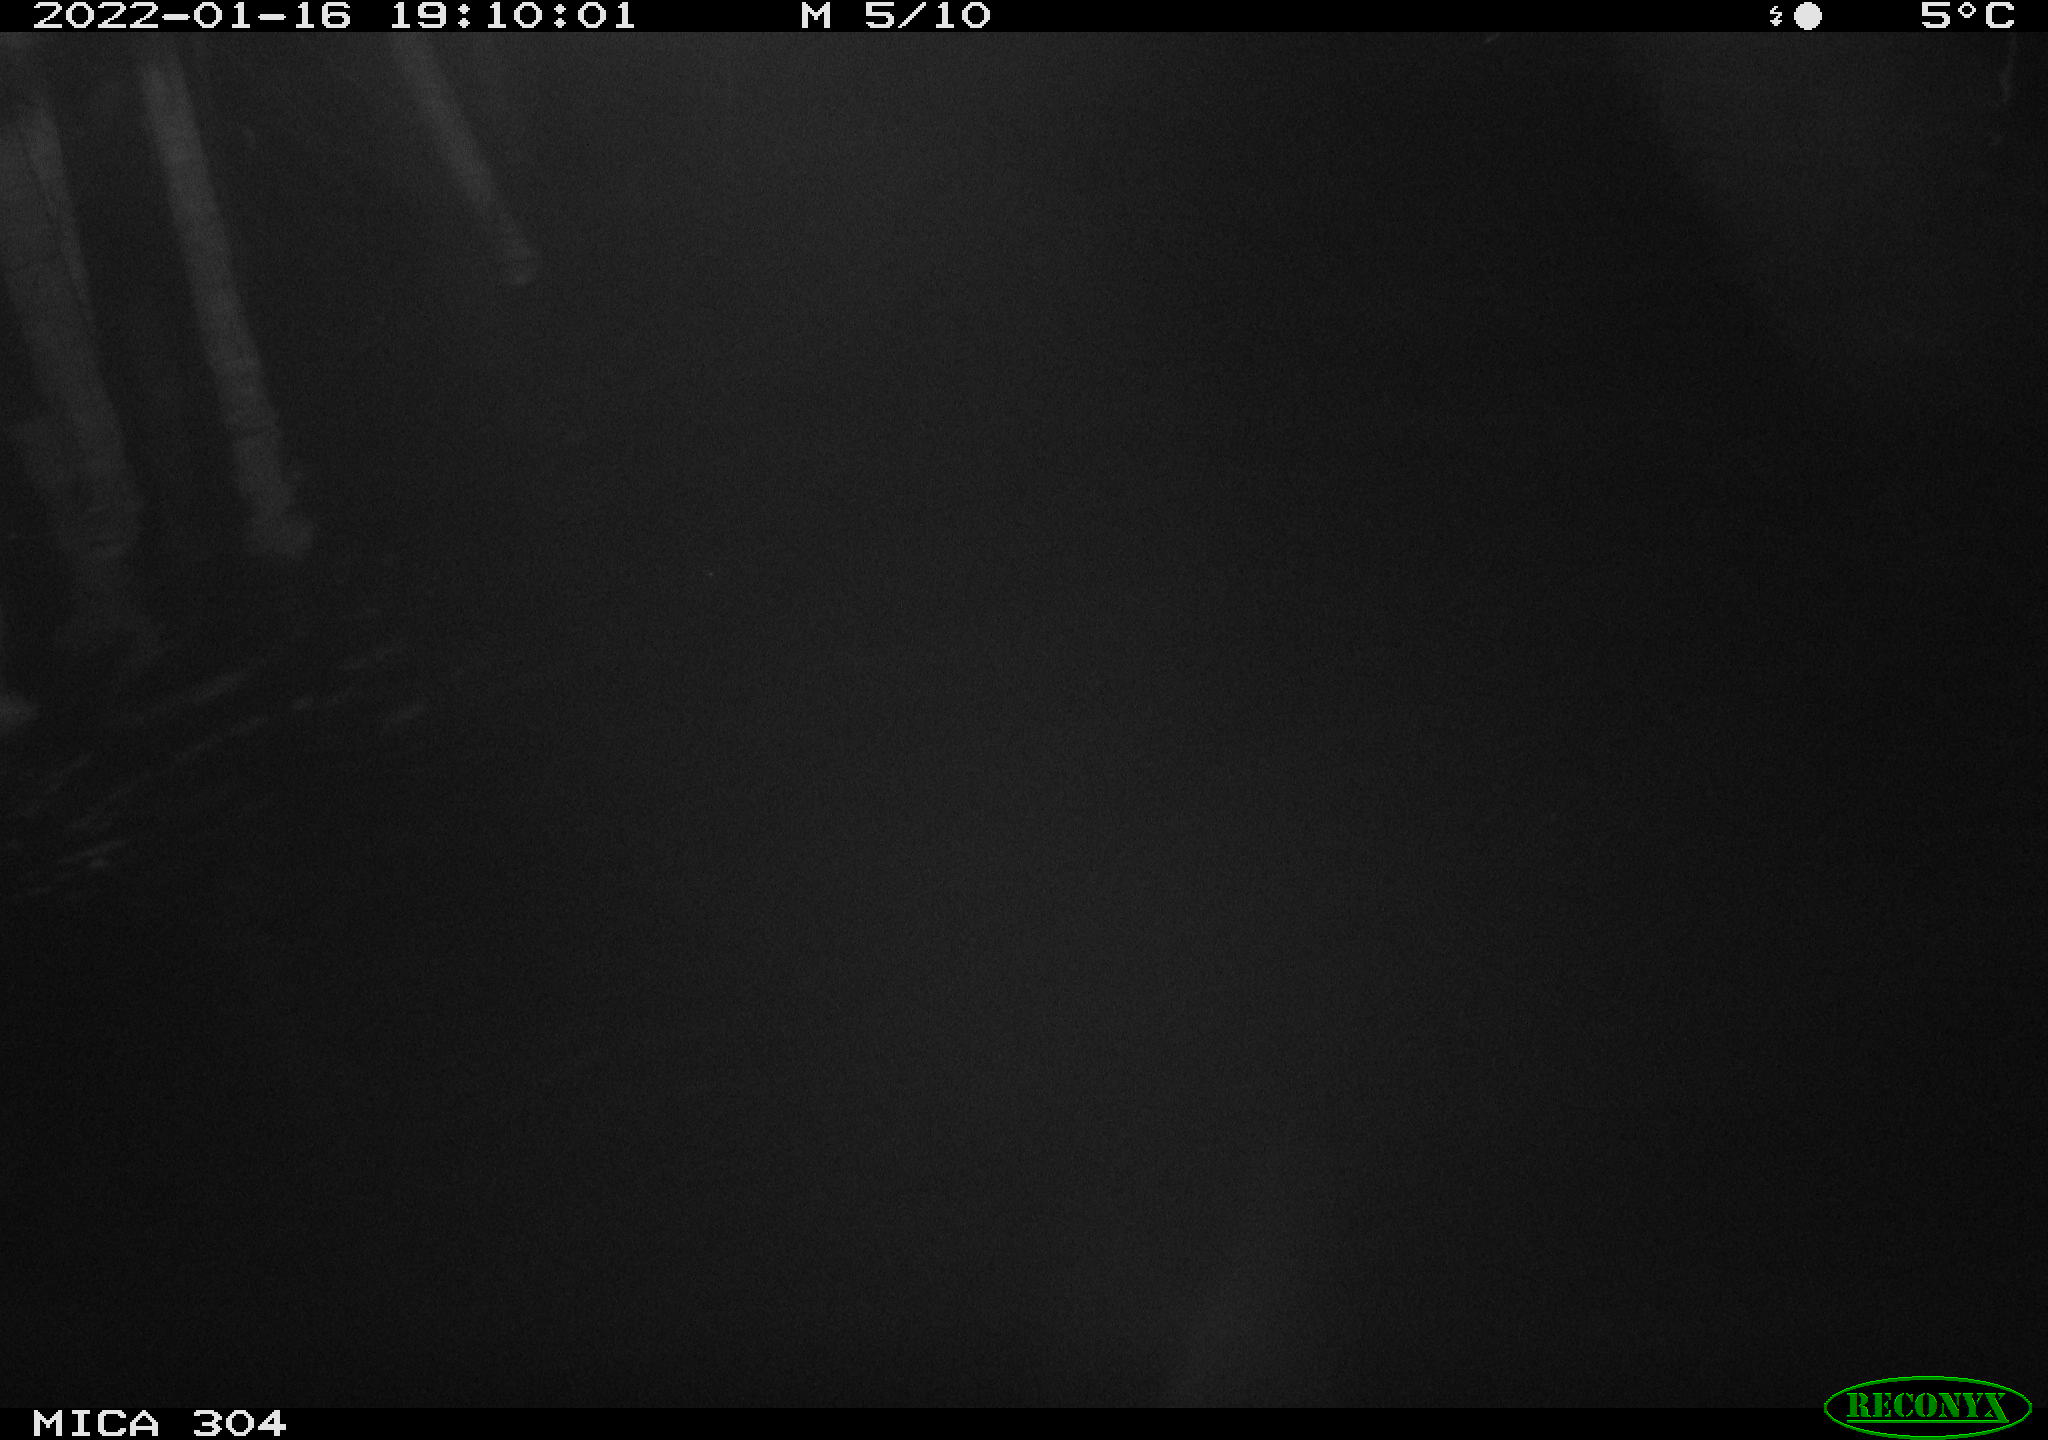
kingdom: Animalia
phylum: Chordata
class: Mammalia
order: Rodentia
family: Cricetidae
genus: Ondatra
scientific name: Ondatra zibethicus
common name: Muskrat
